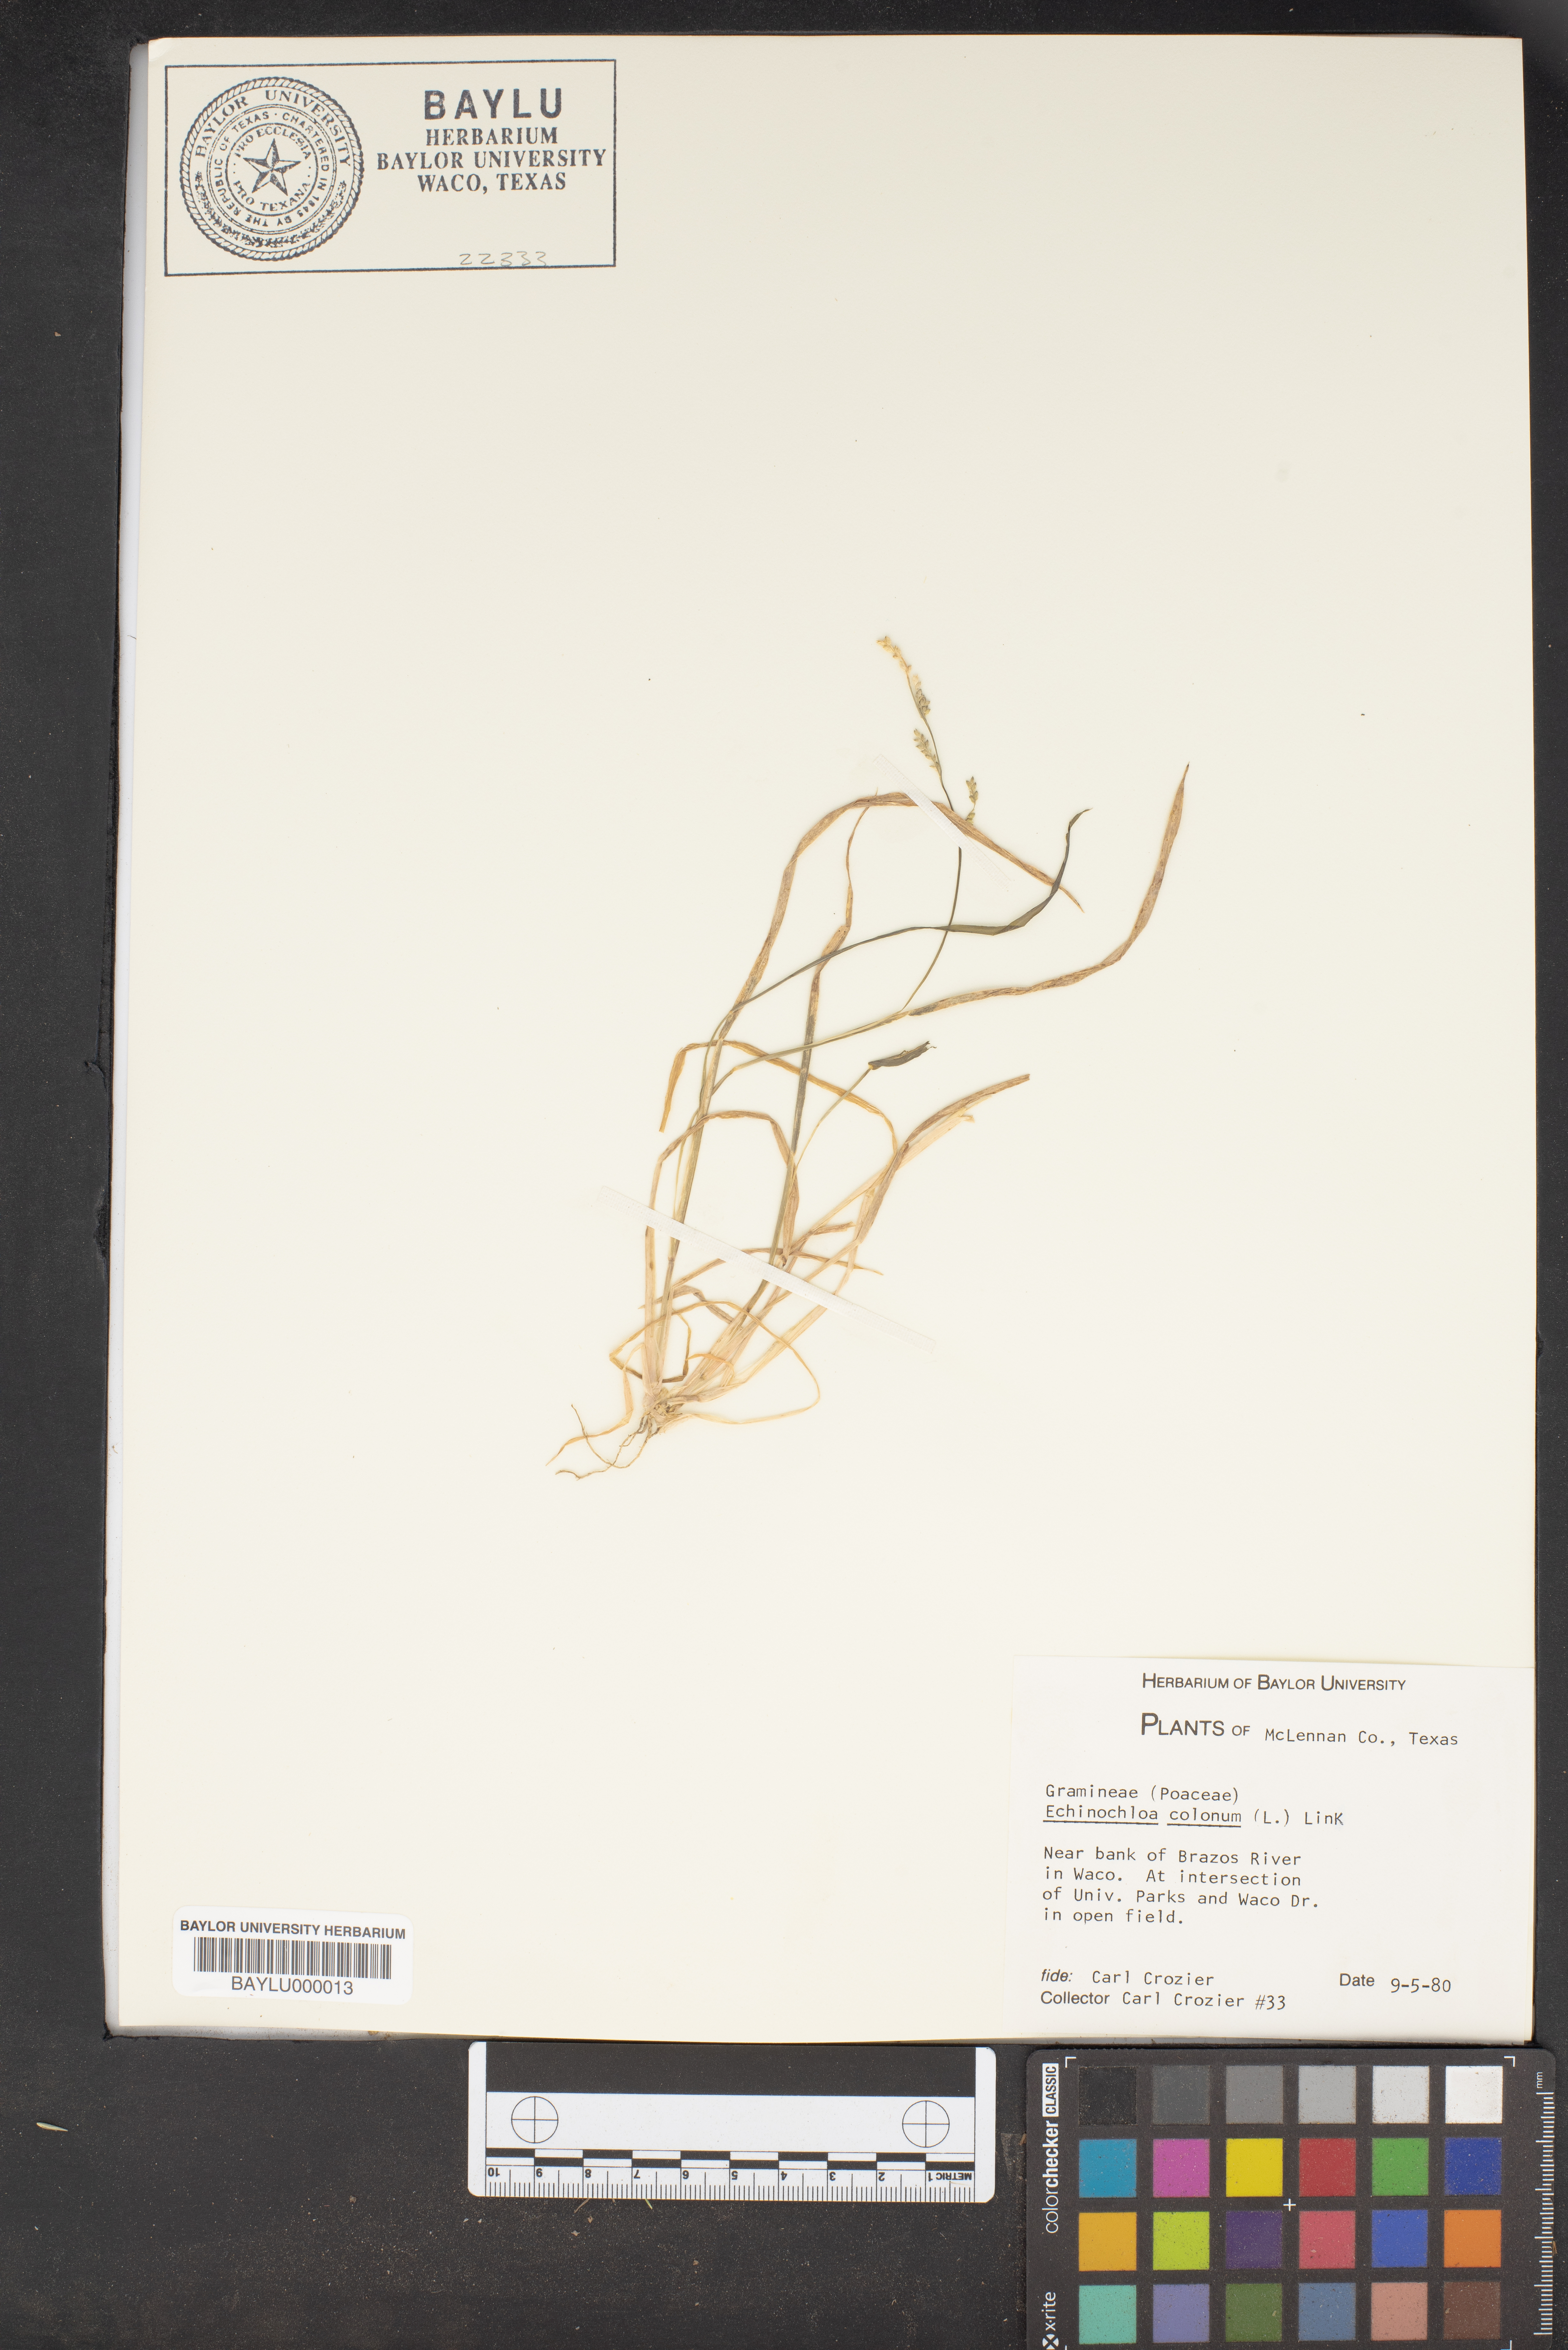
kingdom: Plantae
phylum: Tracheophyta
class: Liliopsida
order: Poales
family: Poaceae
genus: Echinochloa
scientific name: Echinochloa colonum
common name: Jungle rice
